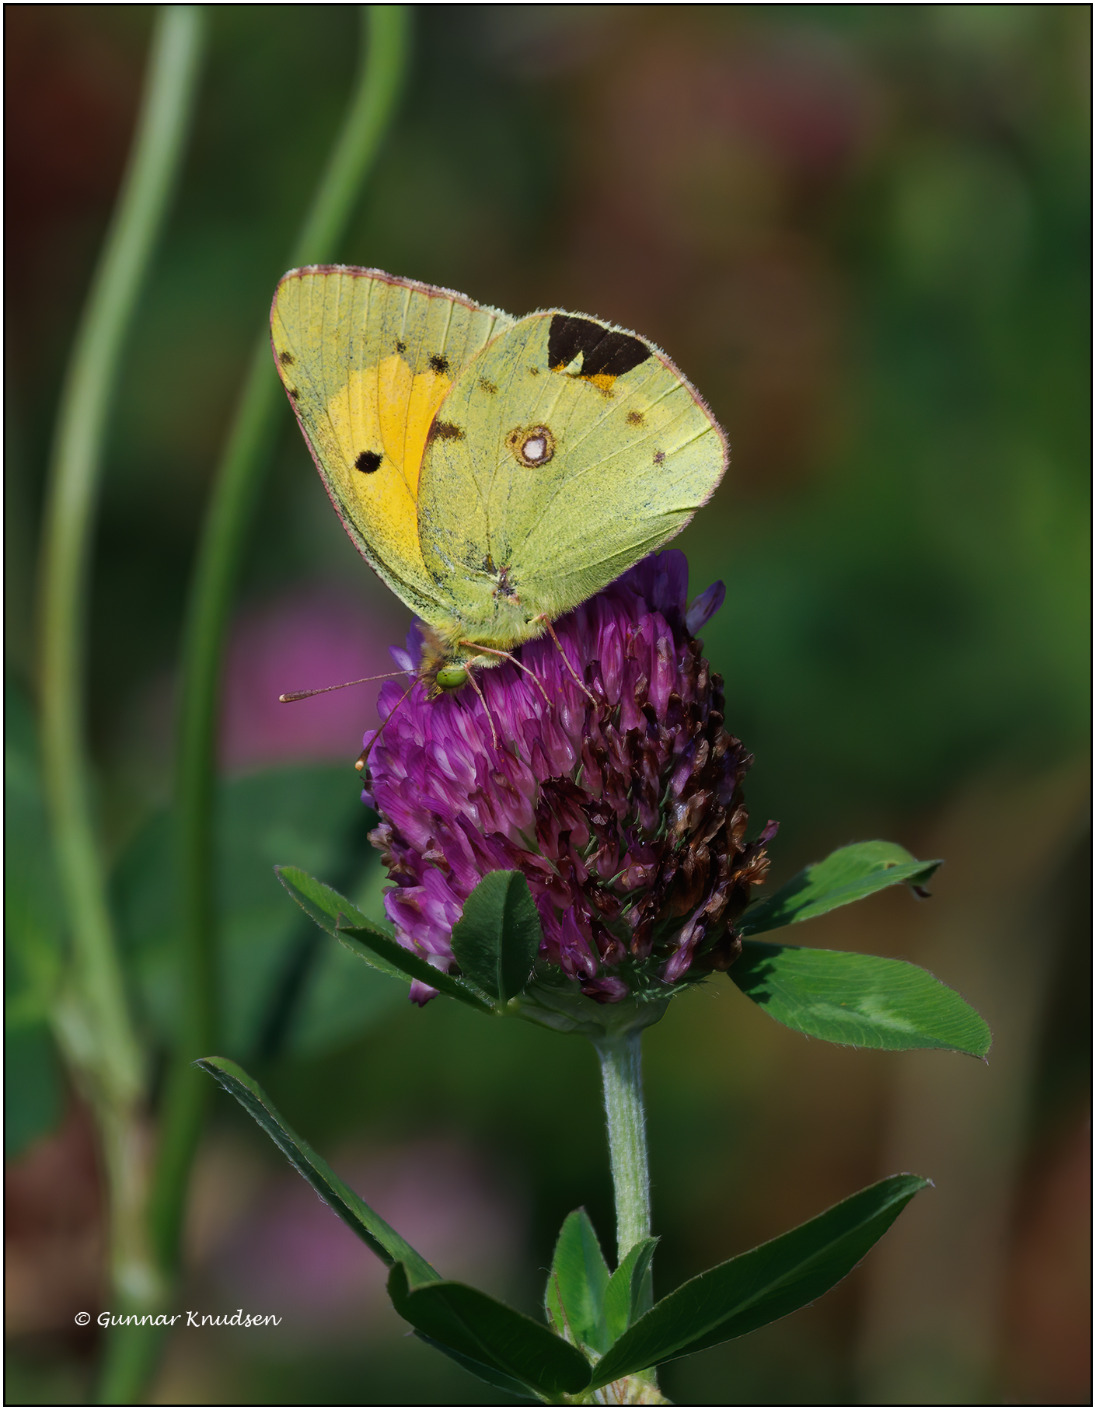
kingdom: Animalia
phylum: Arthropoda
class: Insecta
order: Lepidoptera
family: Pieridae
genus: Colias
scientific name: Colias croceus
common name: Orange høsommerfugl
